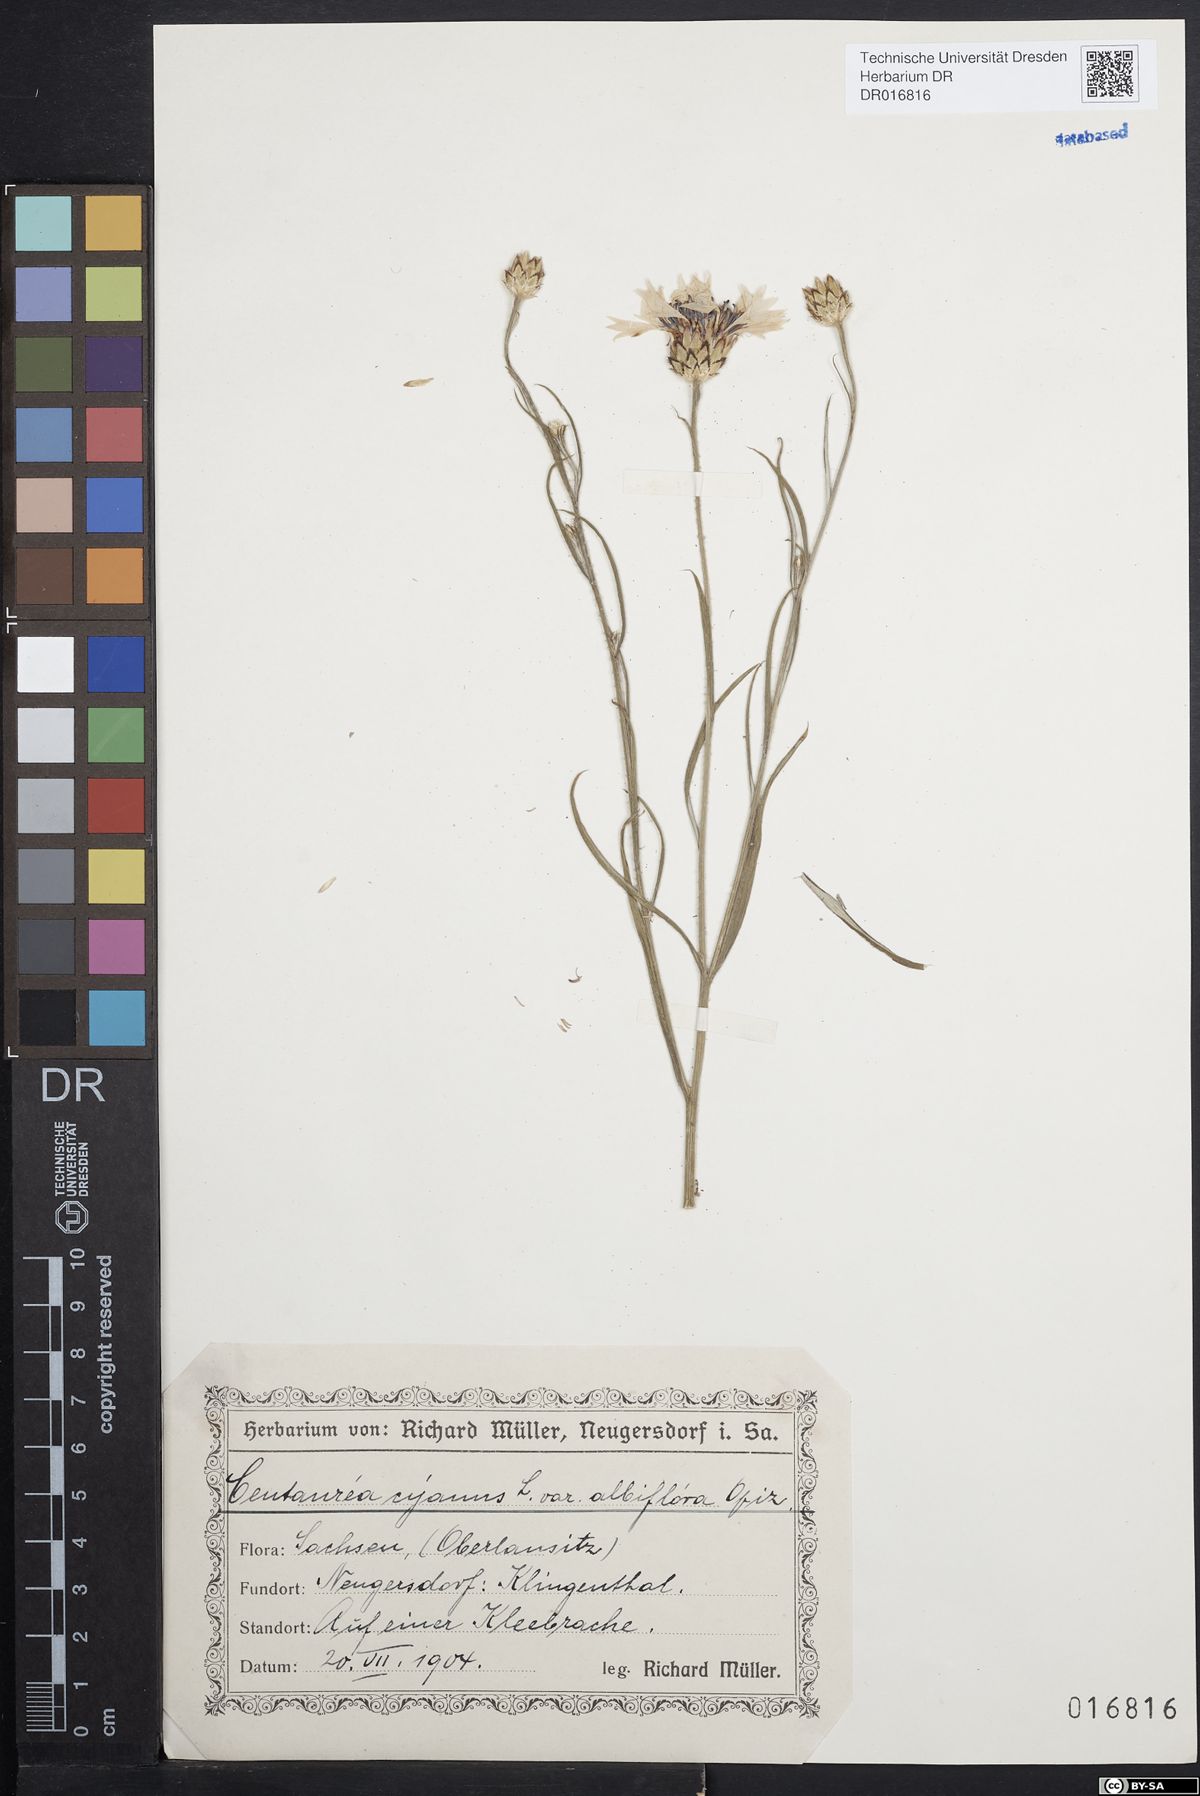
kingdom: Plantae
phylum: Tracheophyta
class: Magnoliopsida
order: Asterales
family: Asteraceae
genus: Centaurea
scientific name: Centaurea cyanus
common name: Cornflower
